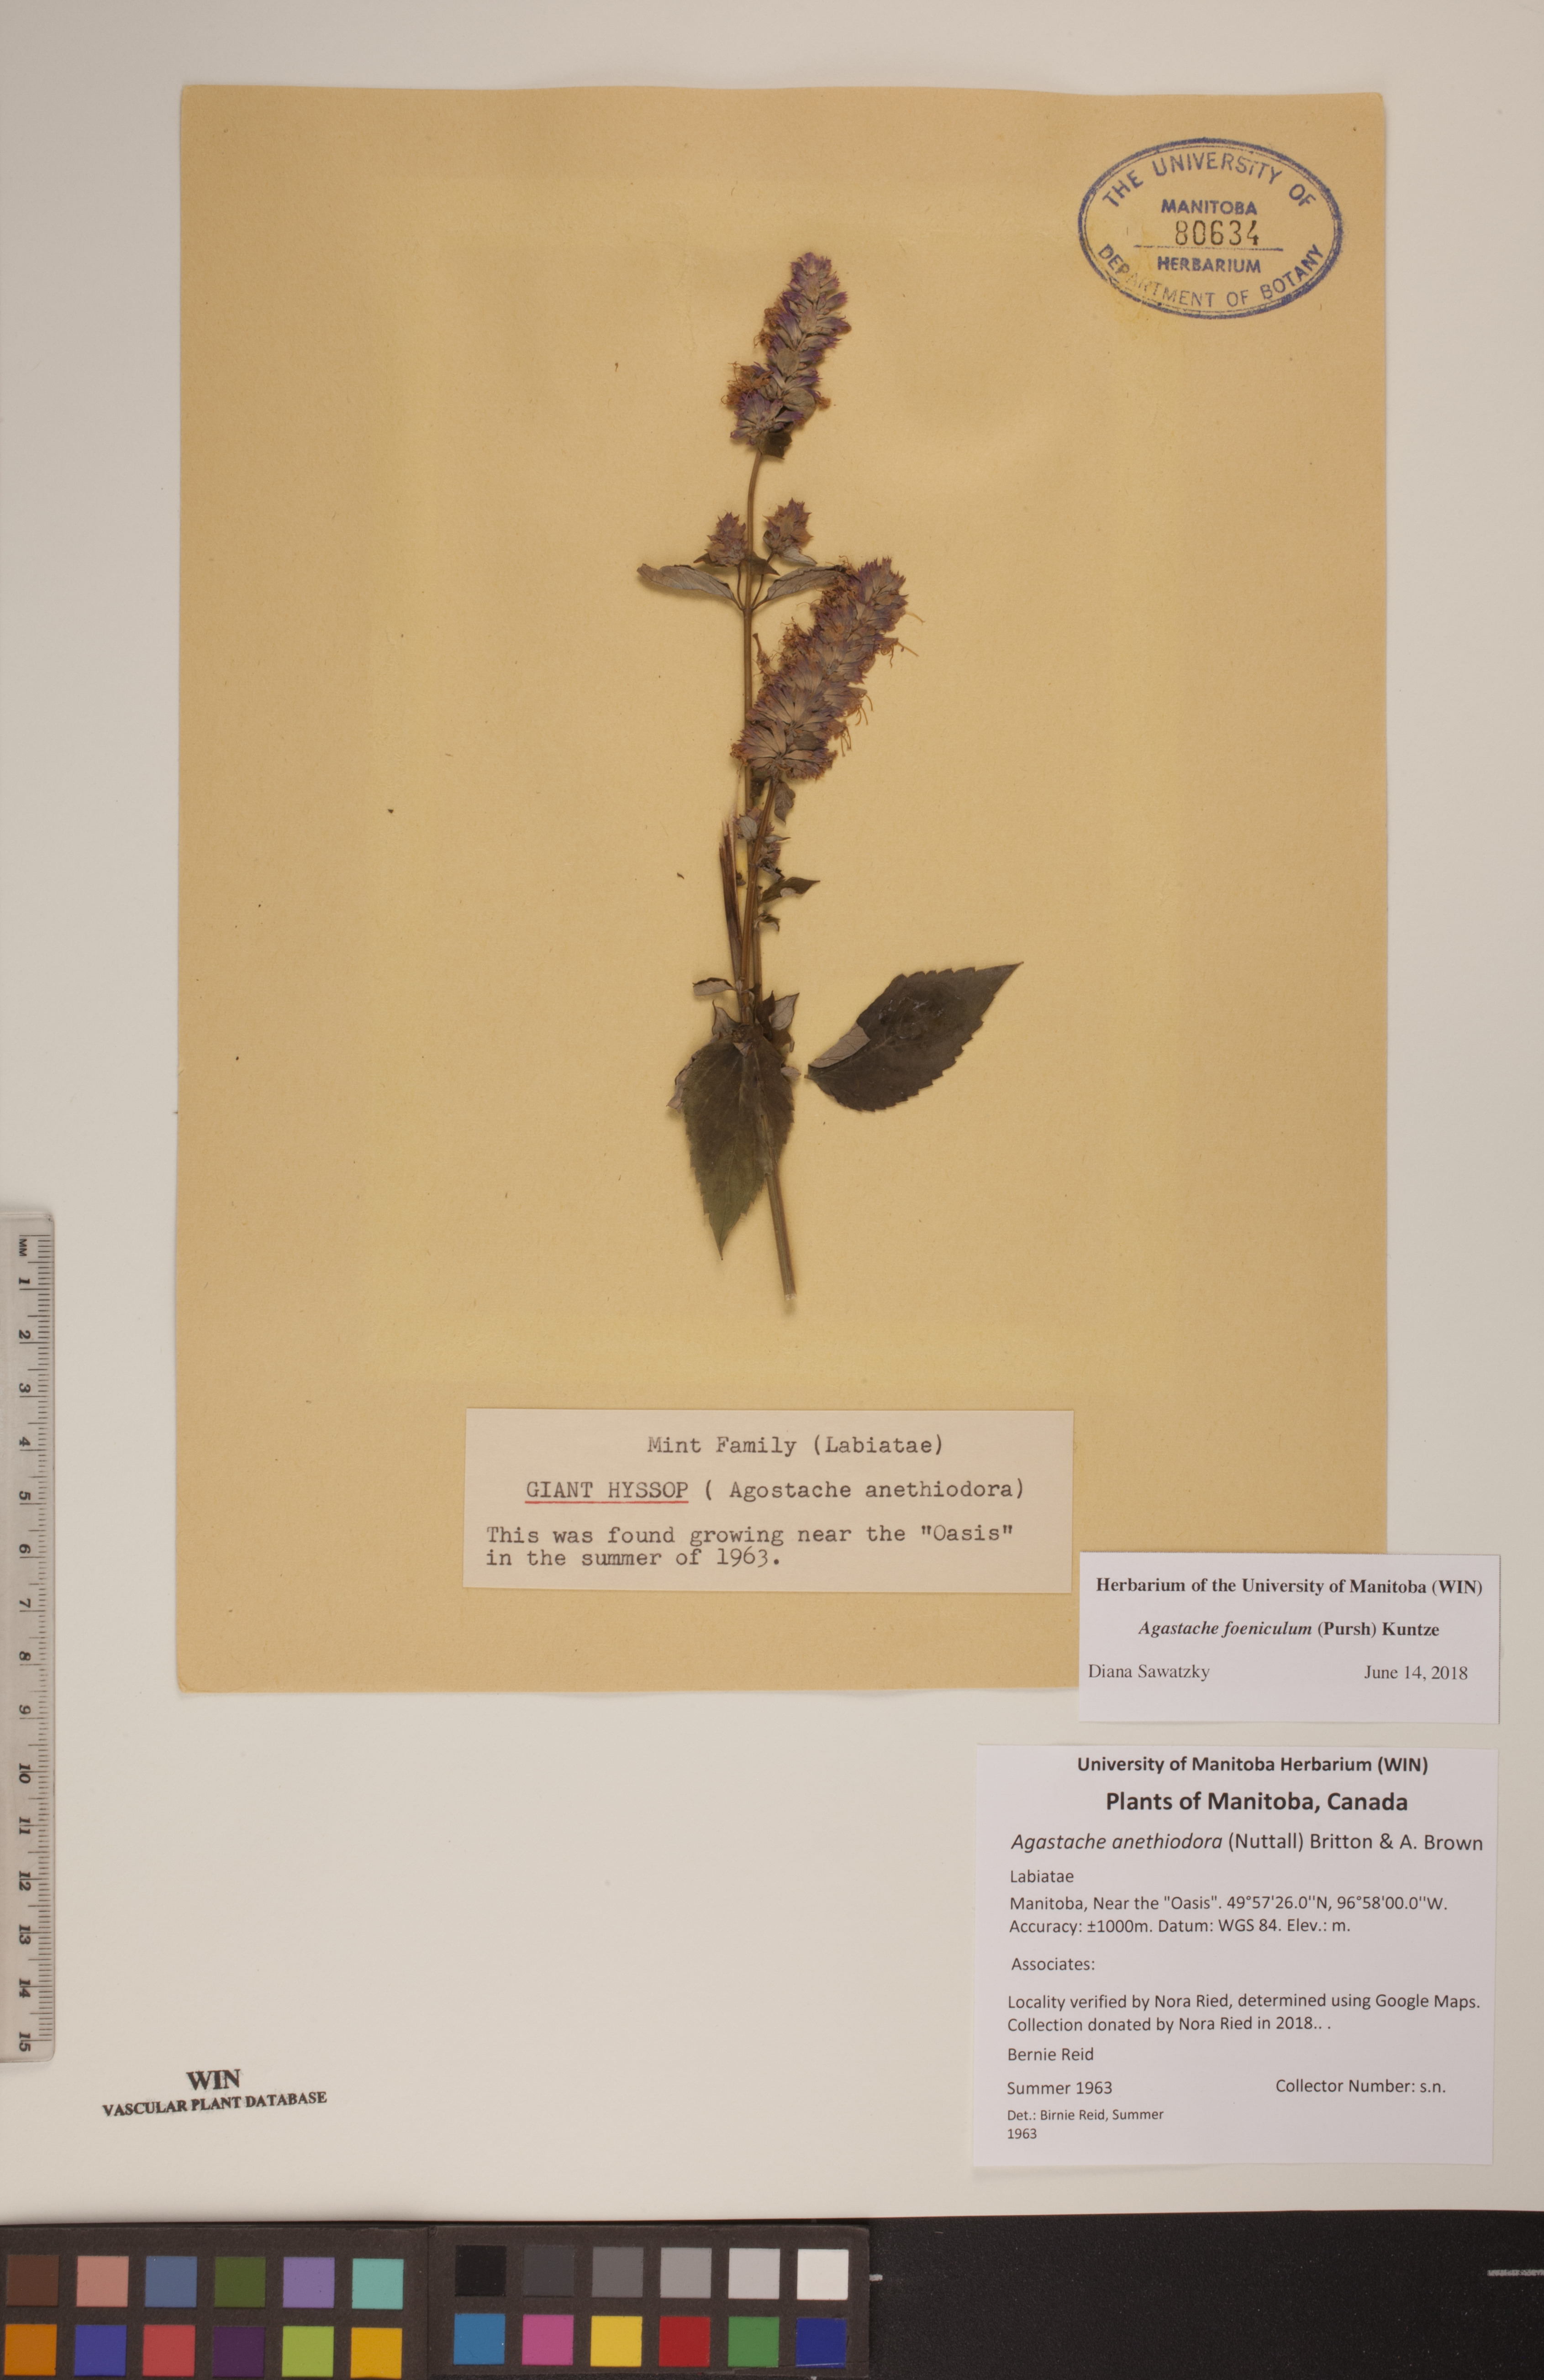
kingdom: Plantae
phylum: Tracheophyta
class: Magnoliopsida
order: Lamiales
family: Lamiaceae
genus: Agastache
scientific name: Agastache foeniculum
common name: Anise hyssop
